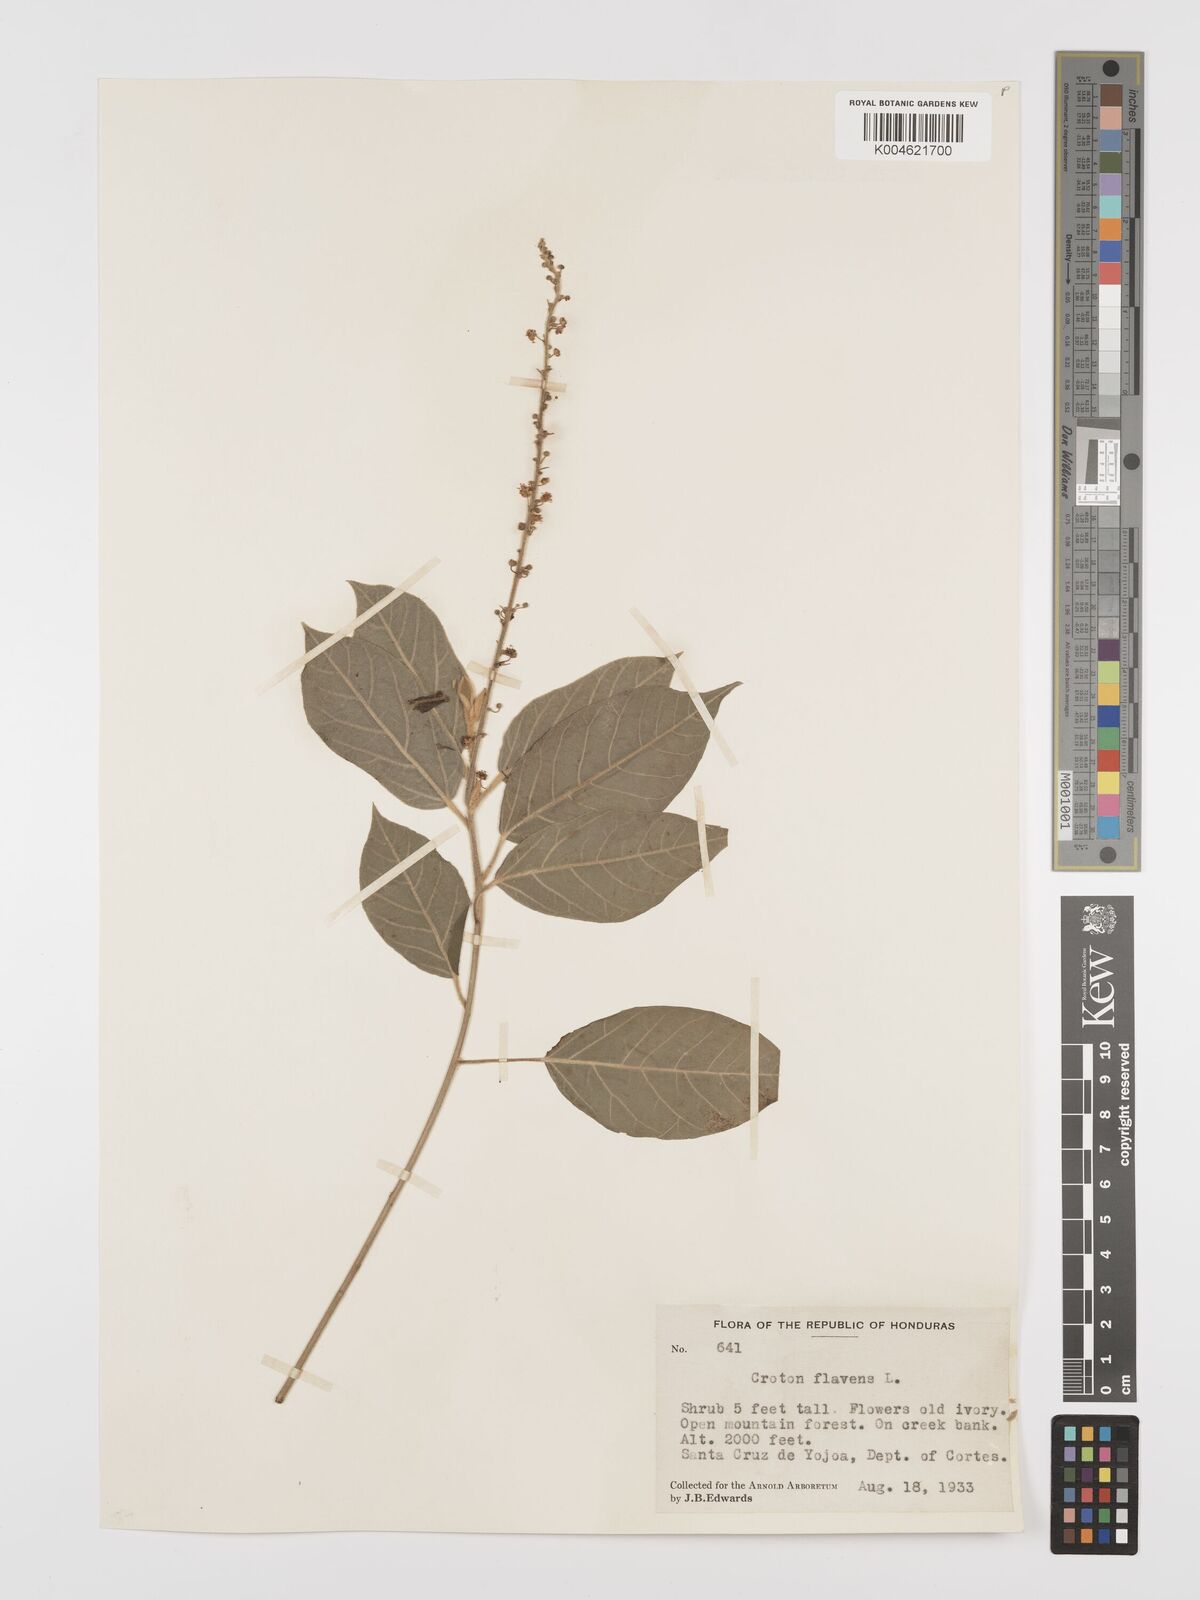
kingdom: Plantae
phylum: Tracheophyta
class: Magnoliopsida
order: Malpighiales
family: Euphorbiaceae
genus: Croton
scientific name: Croton flavens
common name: Yellow balsam
